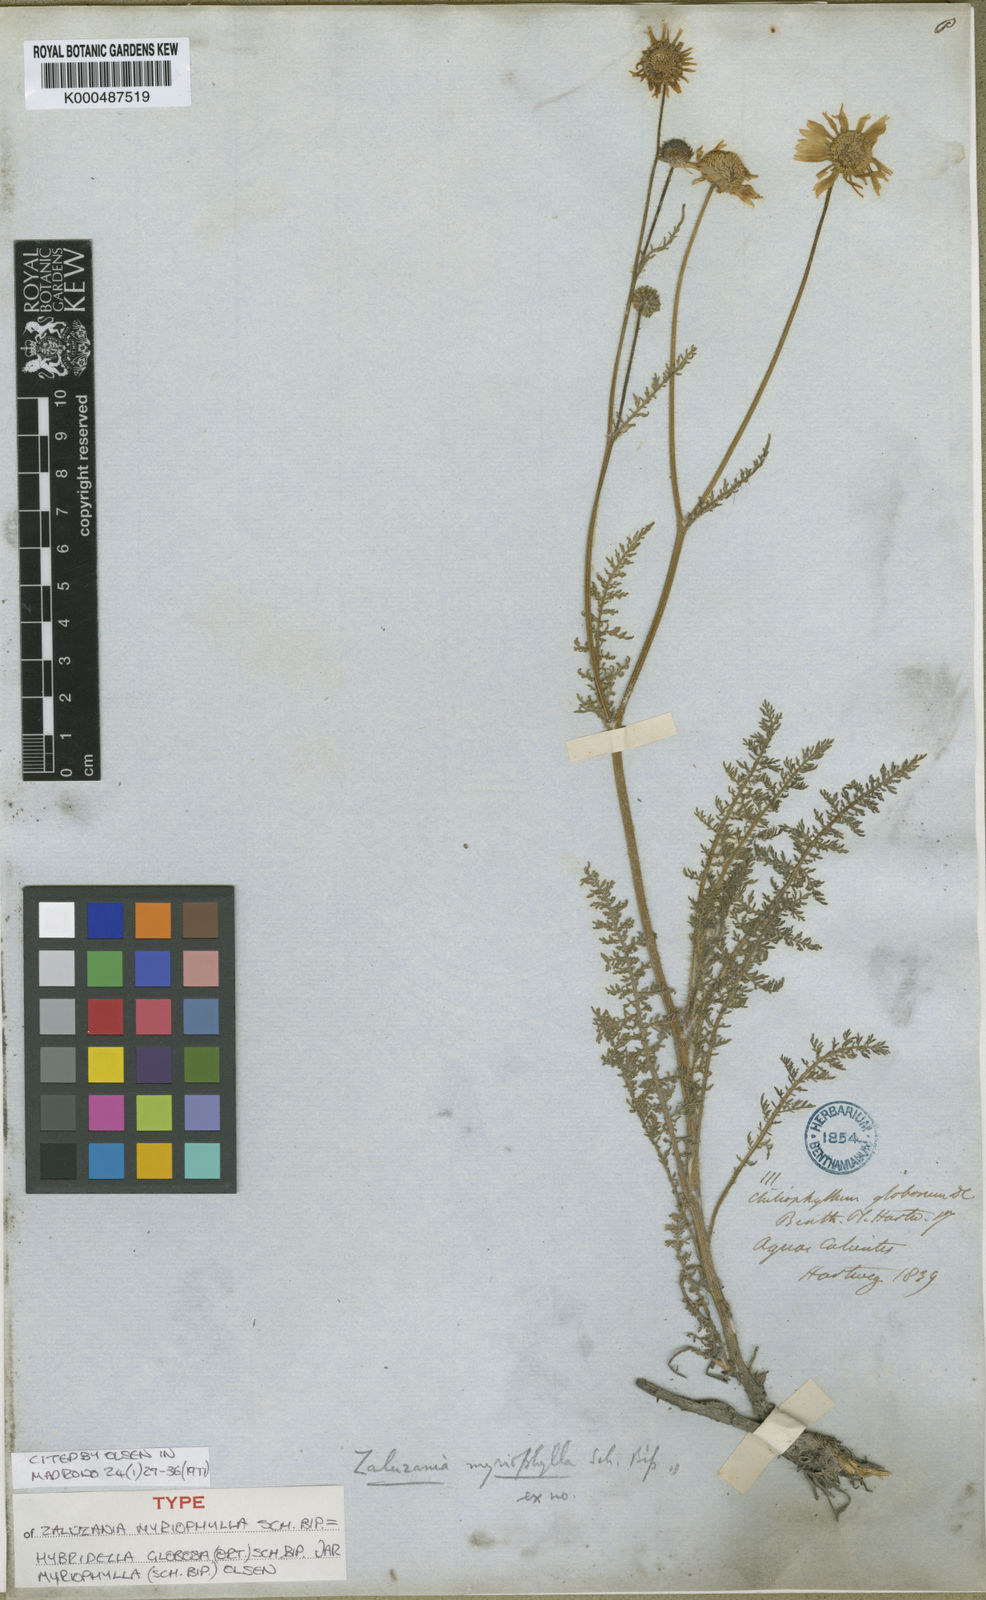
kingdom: Plantae
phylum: Tracheophyta
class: Magnoliopsida
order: Asterales
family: Asteraceae
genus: Hybridella
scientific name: Hybridella globosa
